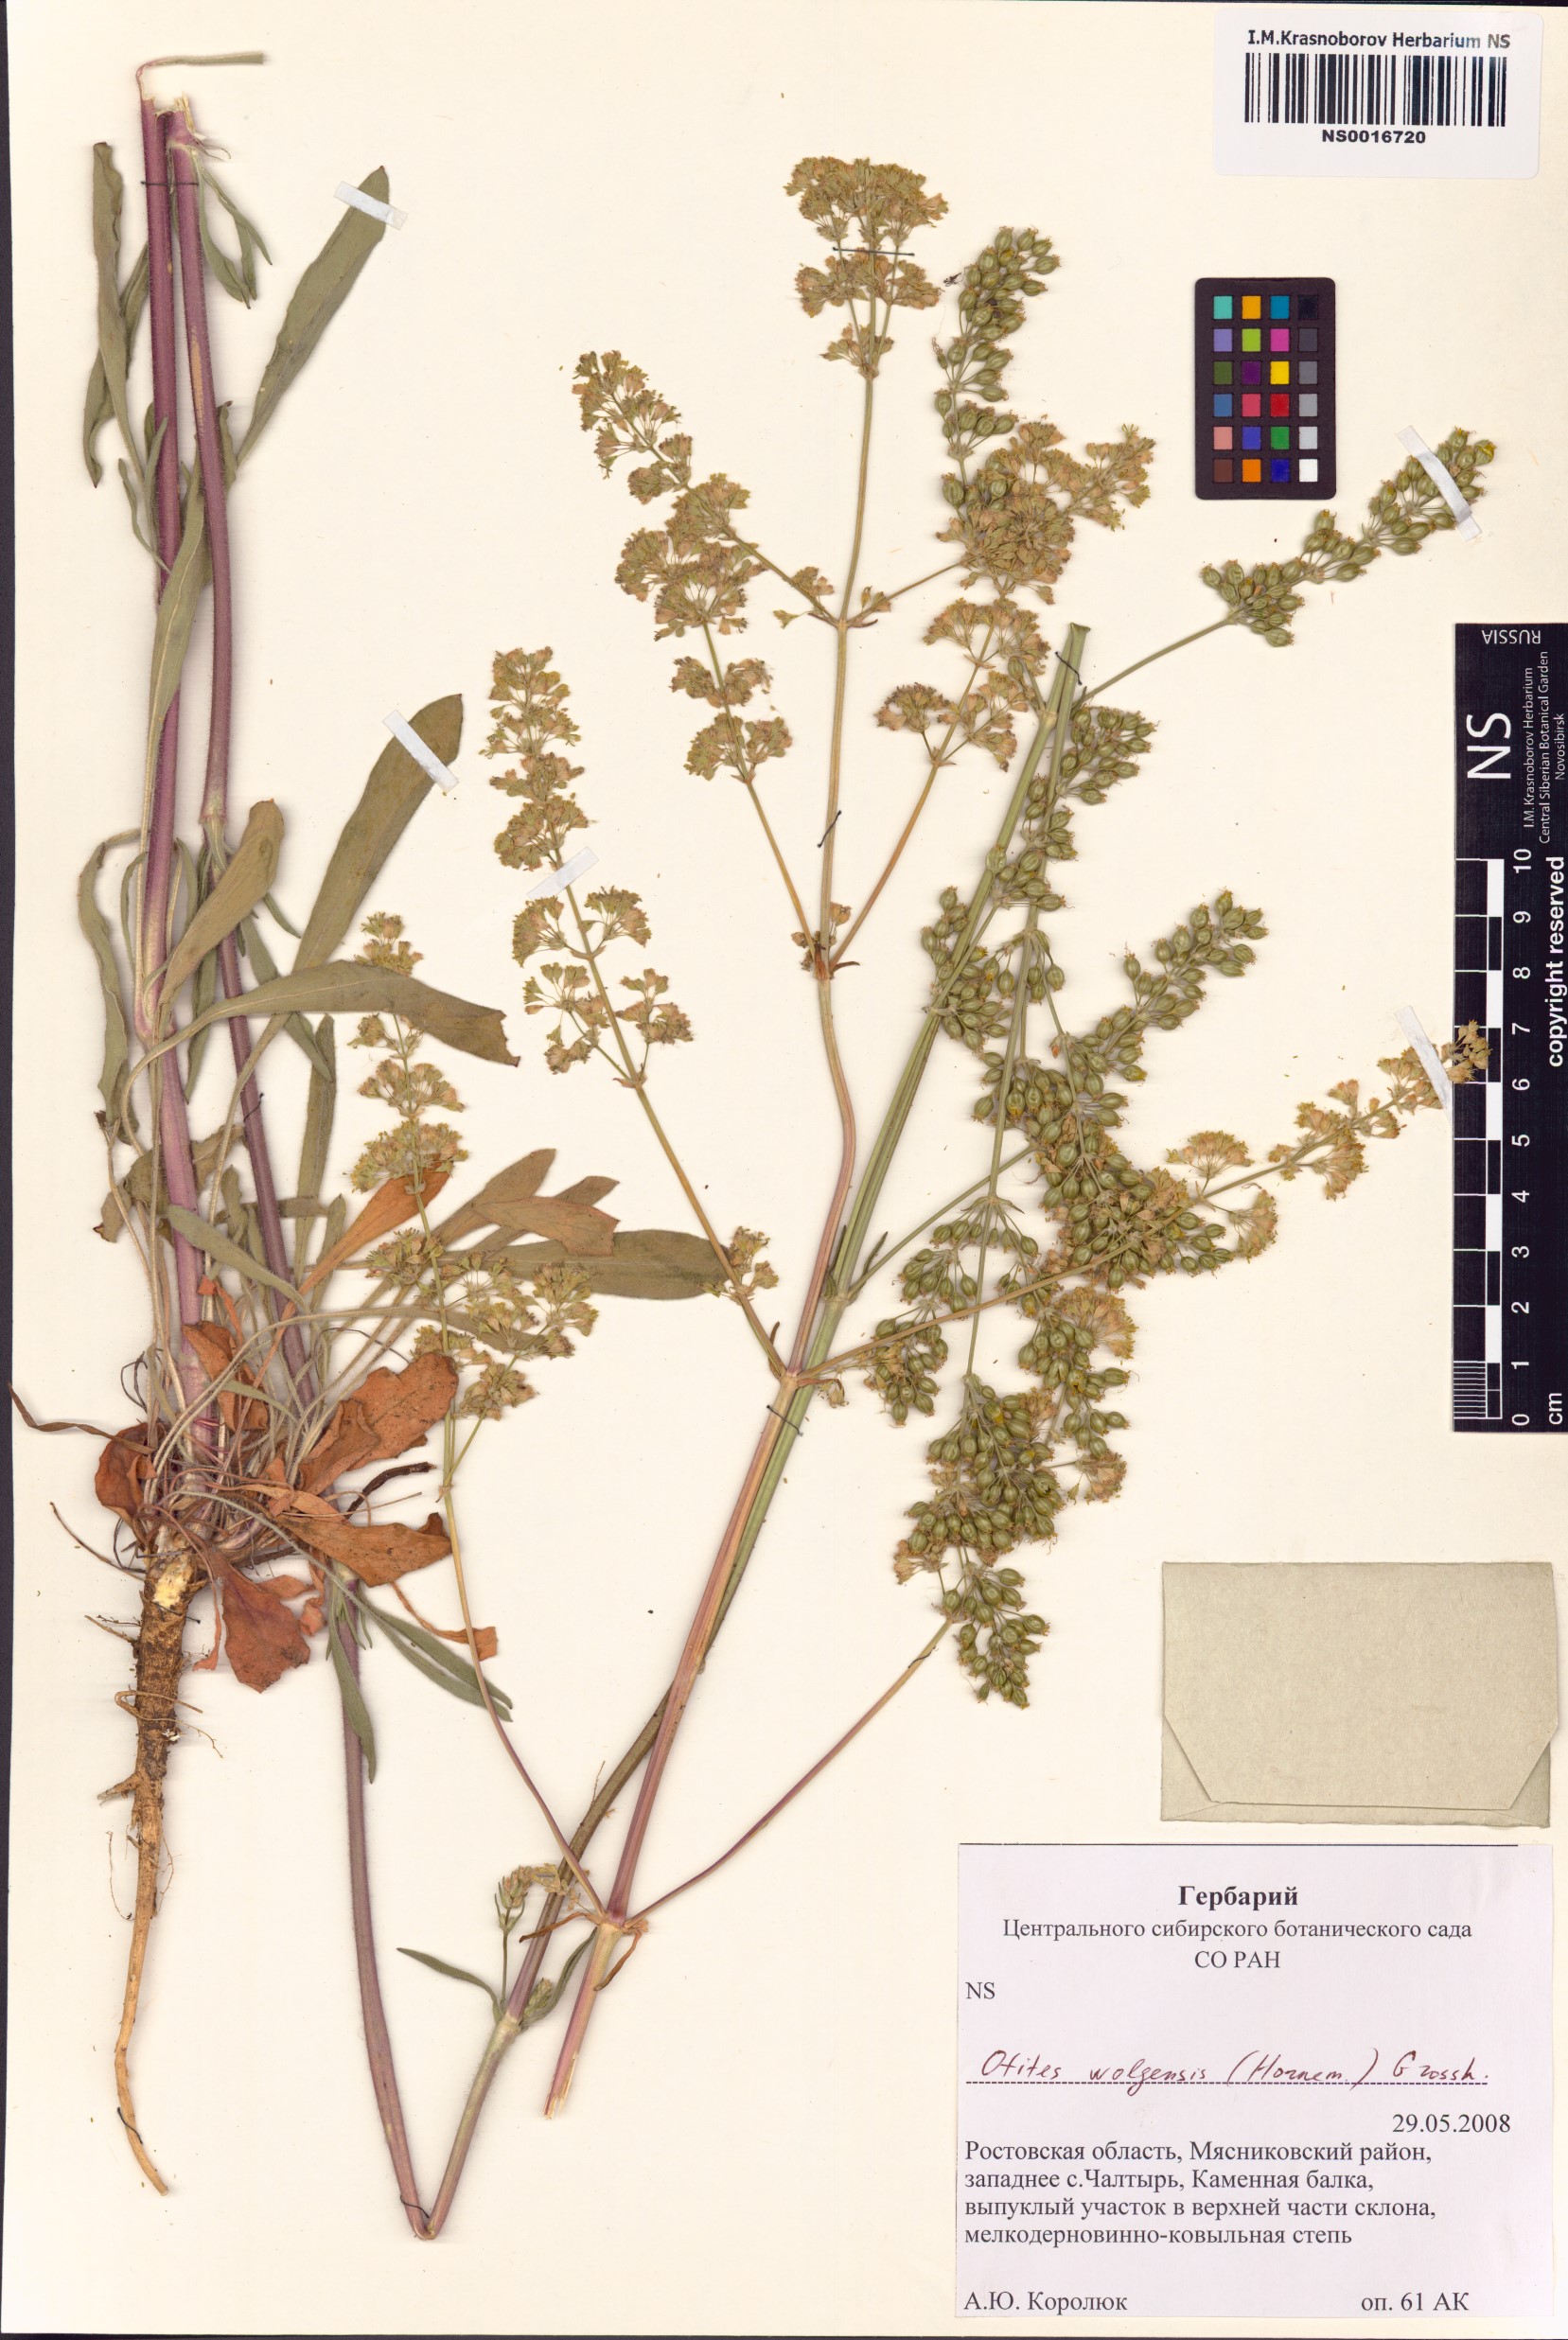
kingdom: Plantae
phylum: Tracheophyta
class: Magnoliopsida
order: Caryophyllales
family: Caryophyllaceae
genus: Silene
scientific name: Silene wolgensis
